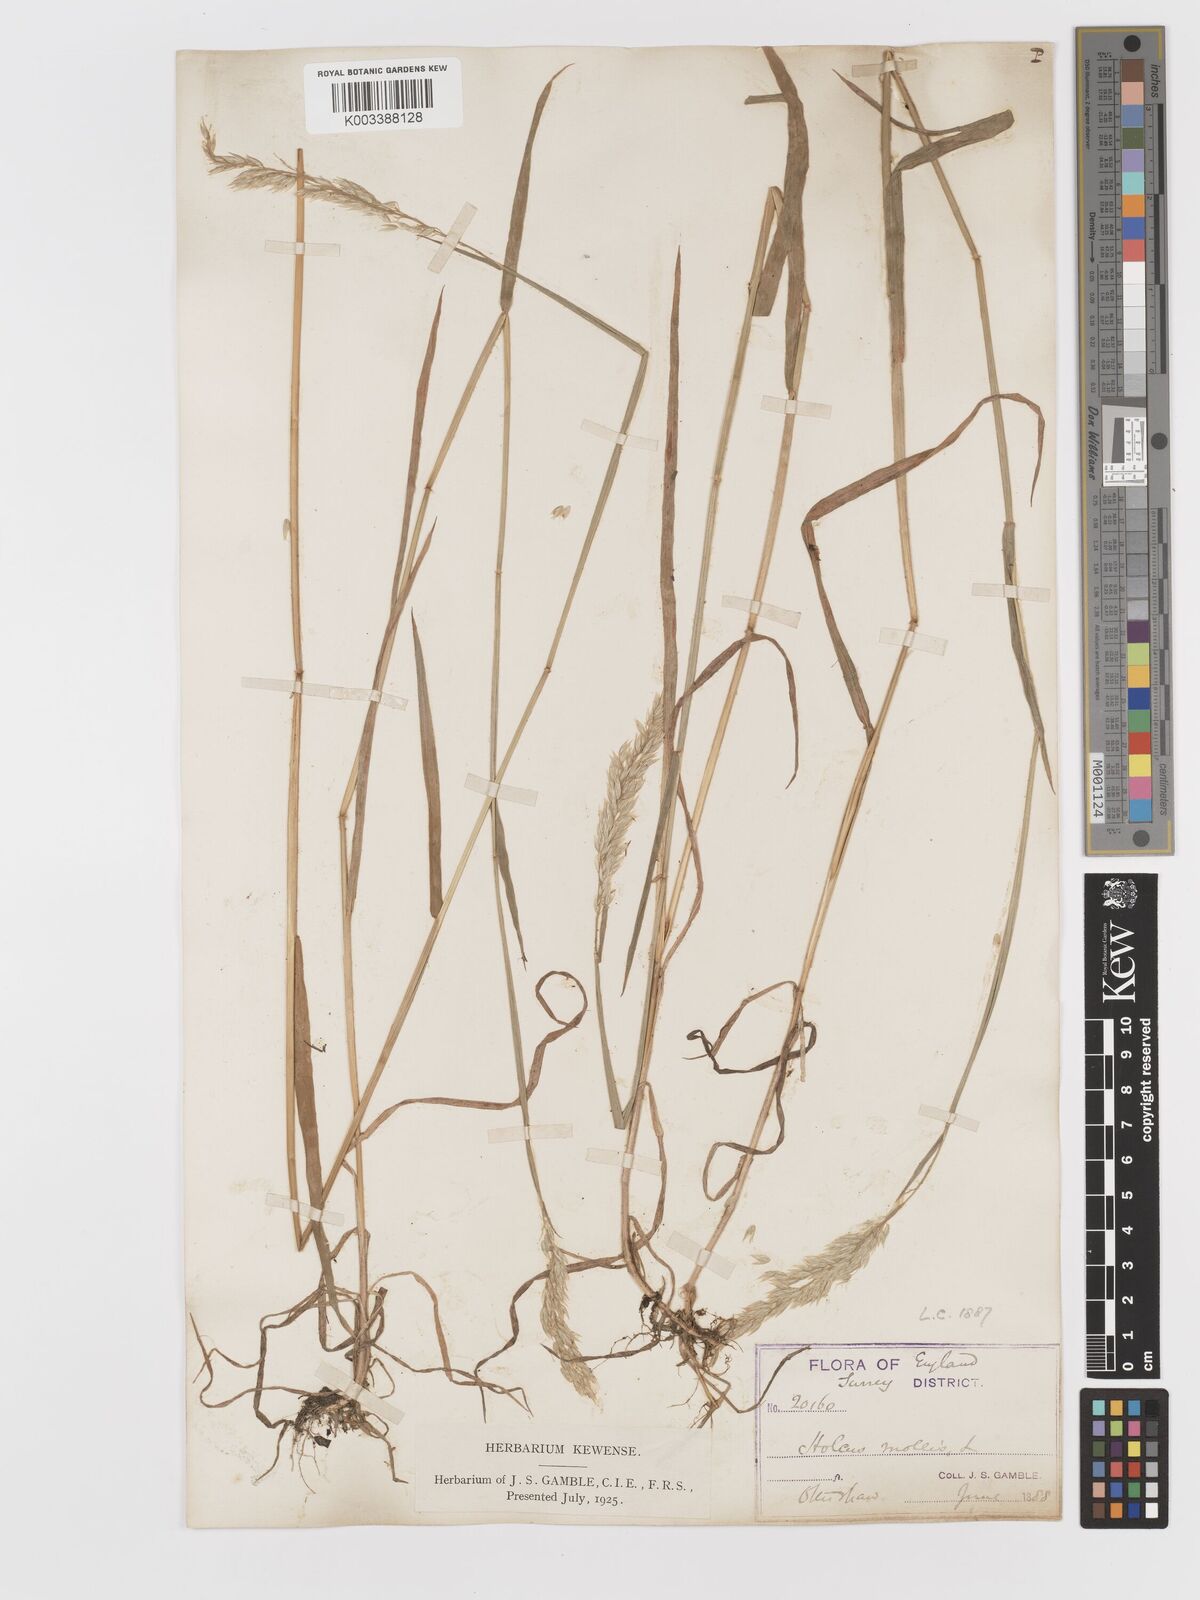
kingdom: Plantae
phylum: Tracheophyta
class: Liliopsida
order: Poales
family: Poaceae
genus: Holcus
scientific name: Holcus mollis
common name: Creeping velvetgrass
